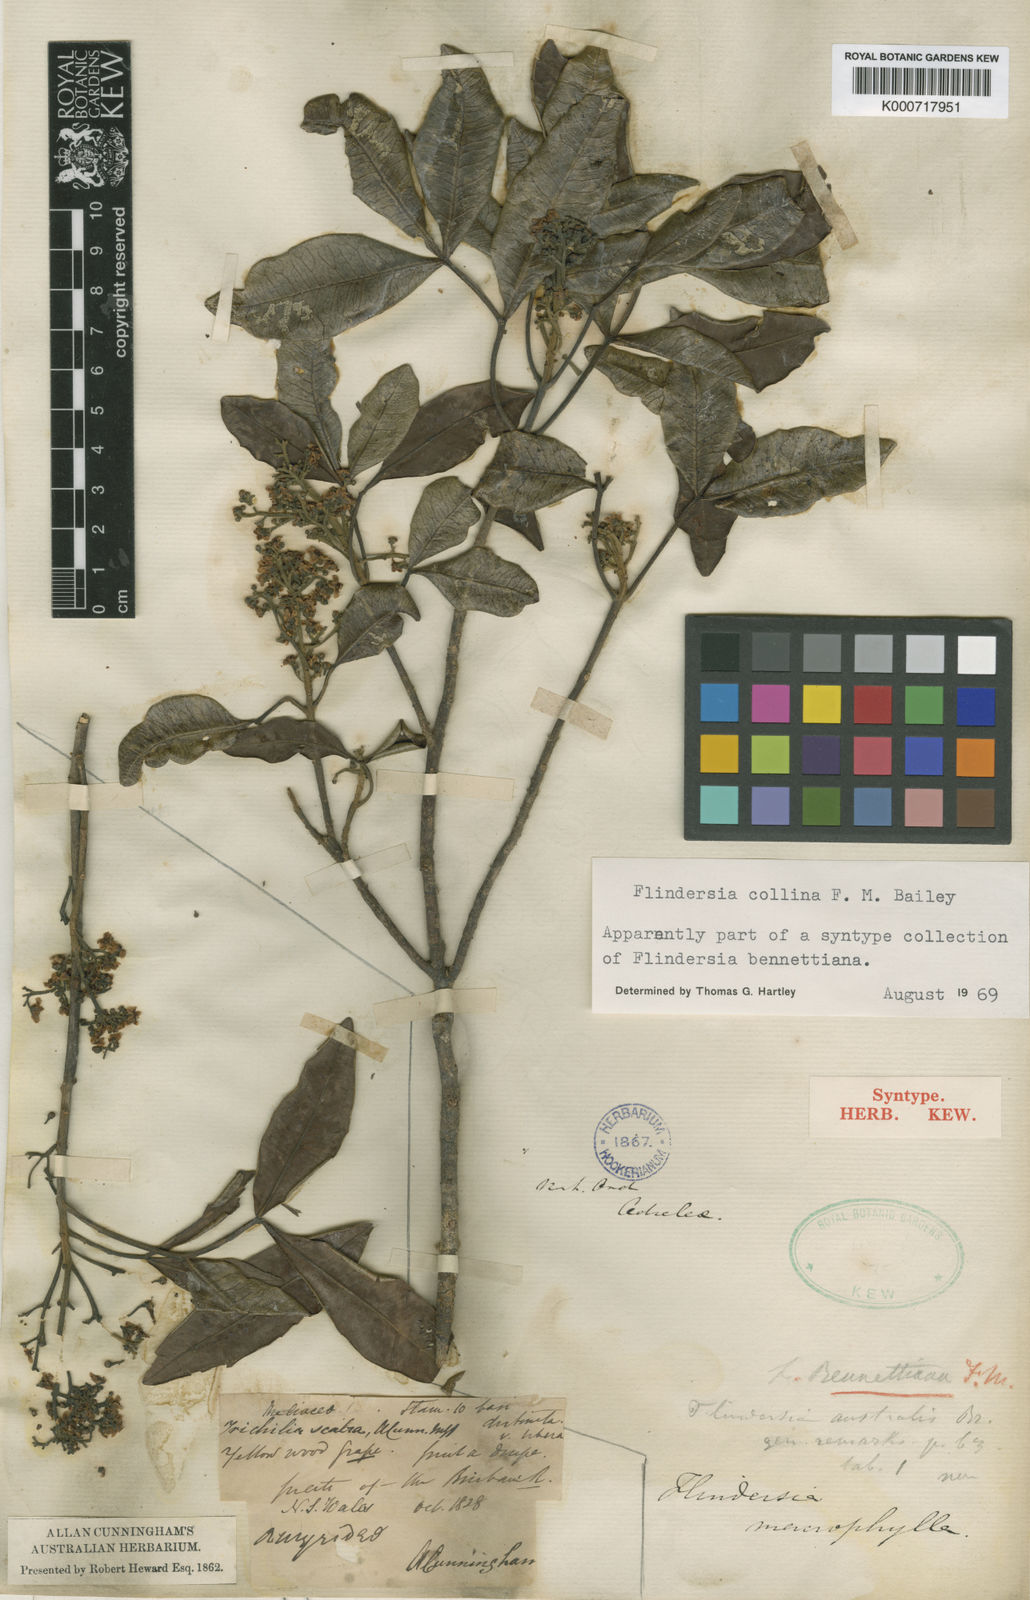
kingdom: Plantae
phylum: Tracheophyta
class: Magnoliopsida
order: Sapindales
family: Rutaceae
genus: Flindersia
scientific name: Flindersia collina
